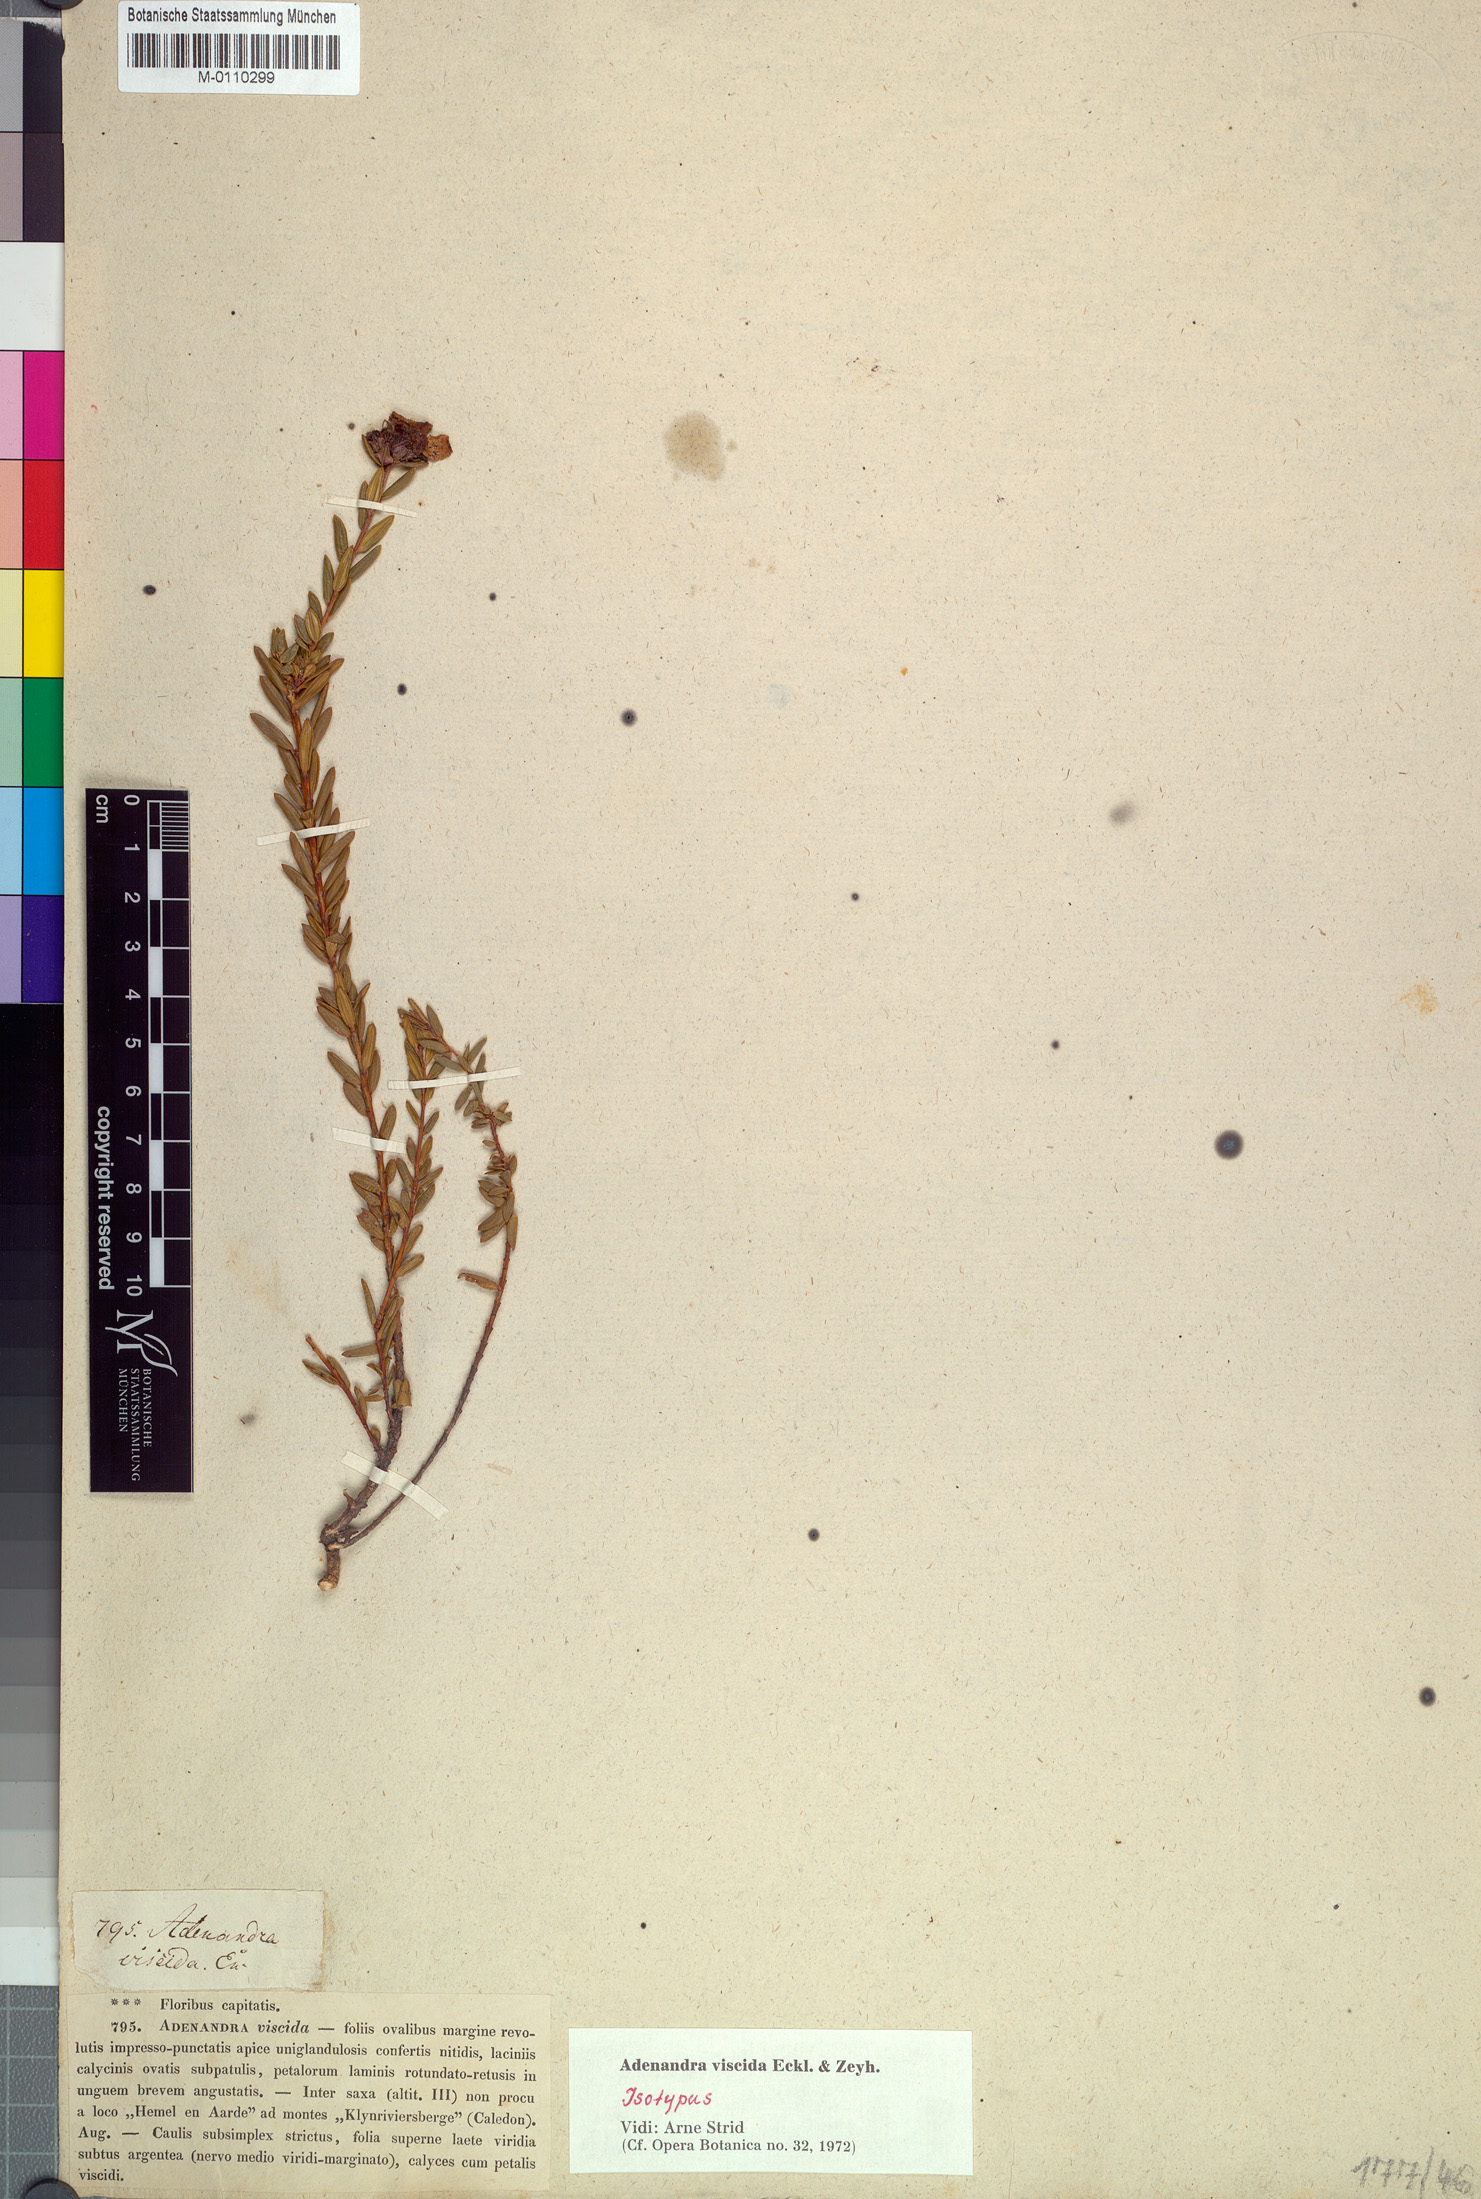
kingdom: Plantae
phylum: Tracheophyta
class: Magnoliopsida
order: Sapindales
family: Rutaceae
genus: Adenandra
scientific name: Adenandra viscida
